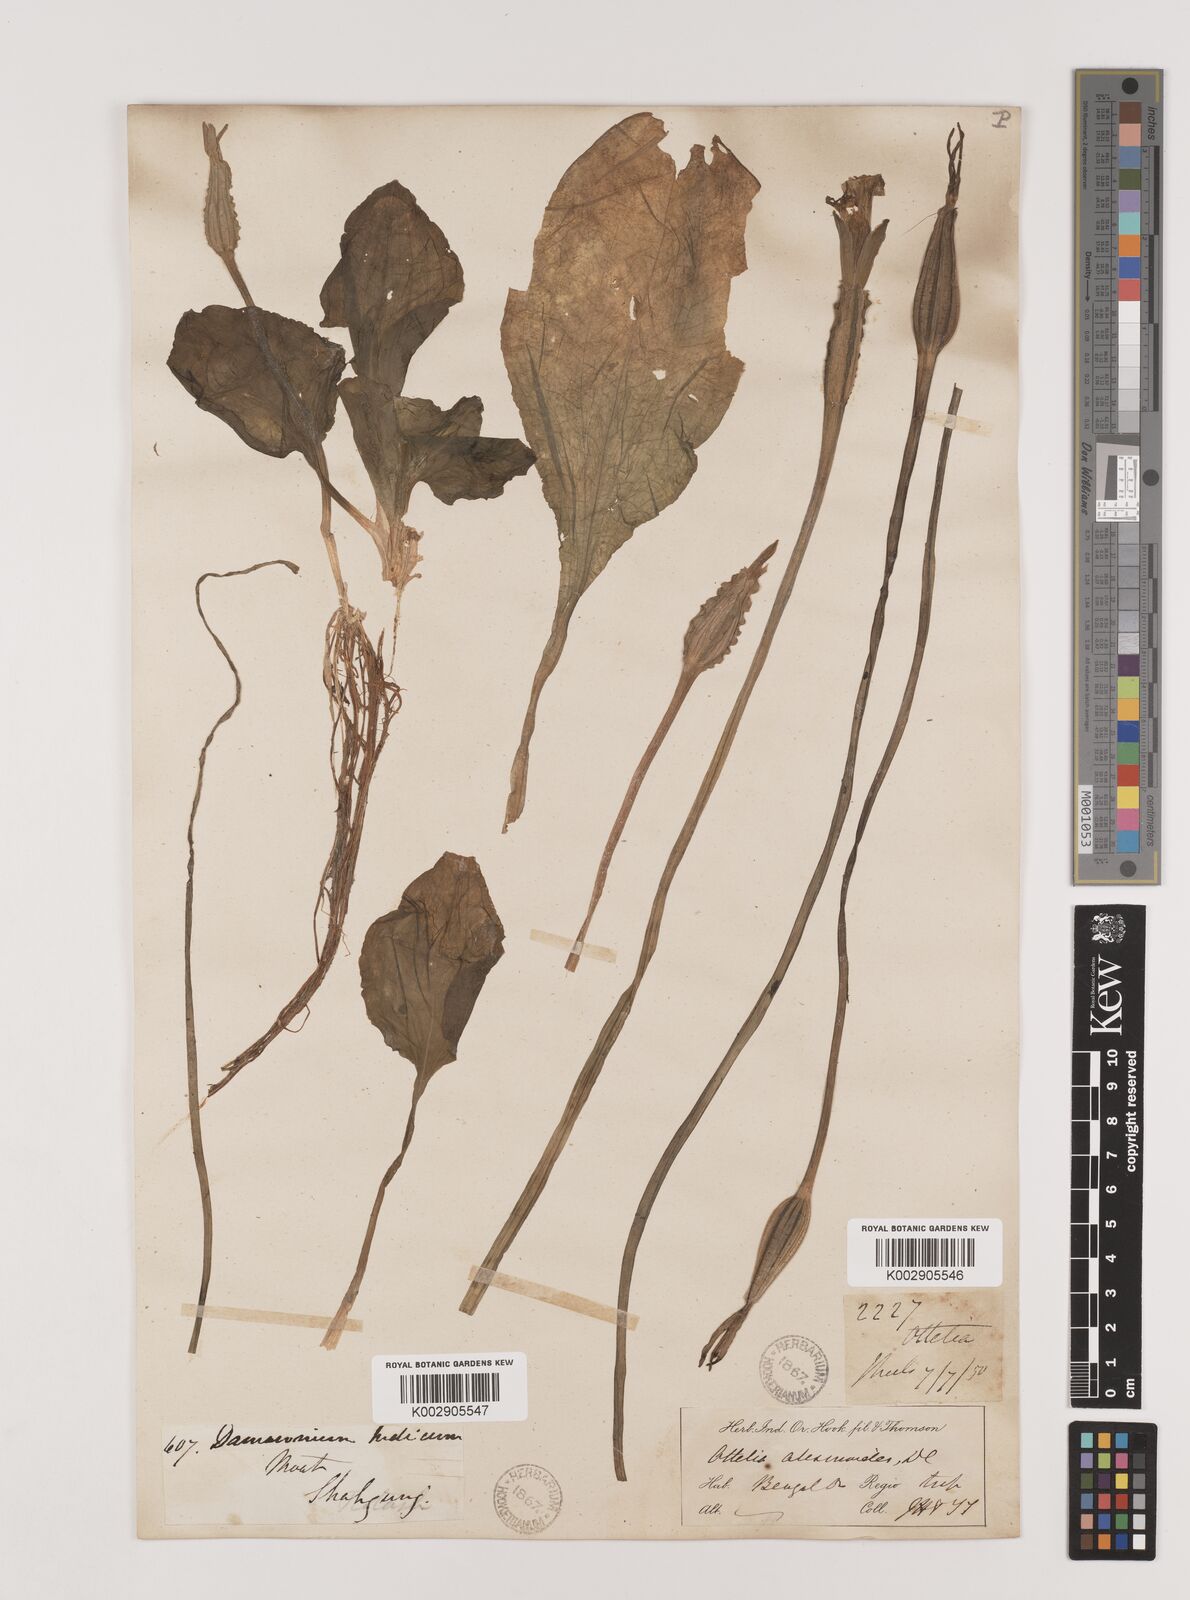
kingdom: Plantae
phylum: Tracheophyta
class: Liliopsida
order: Alismatales
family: Hydrocharitaceae
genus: Ottelia
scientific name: Ottelia alismoides
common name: Duck-lettuce
